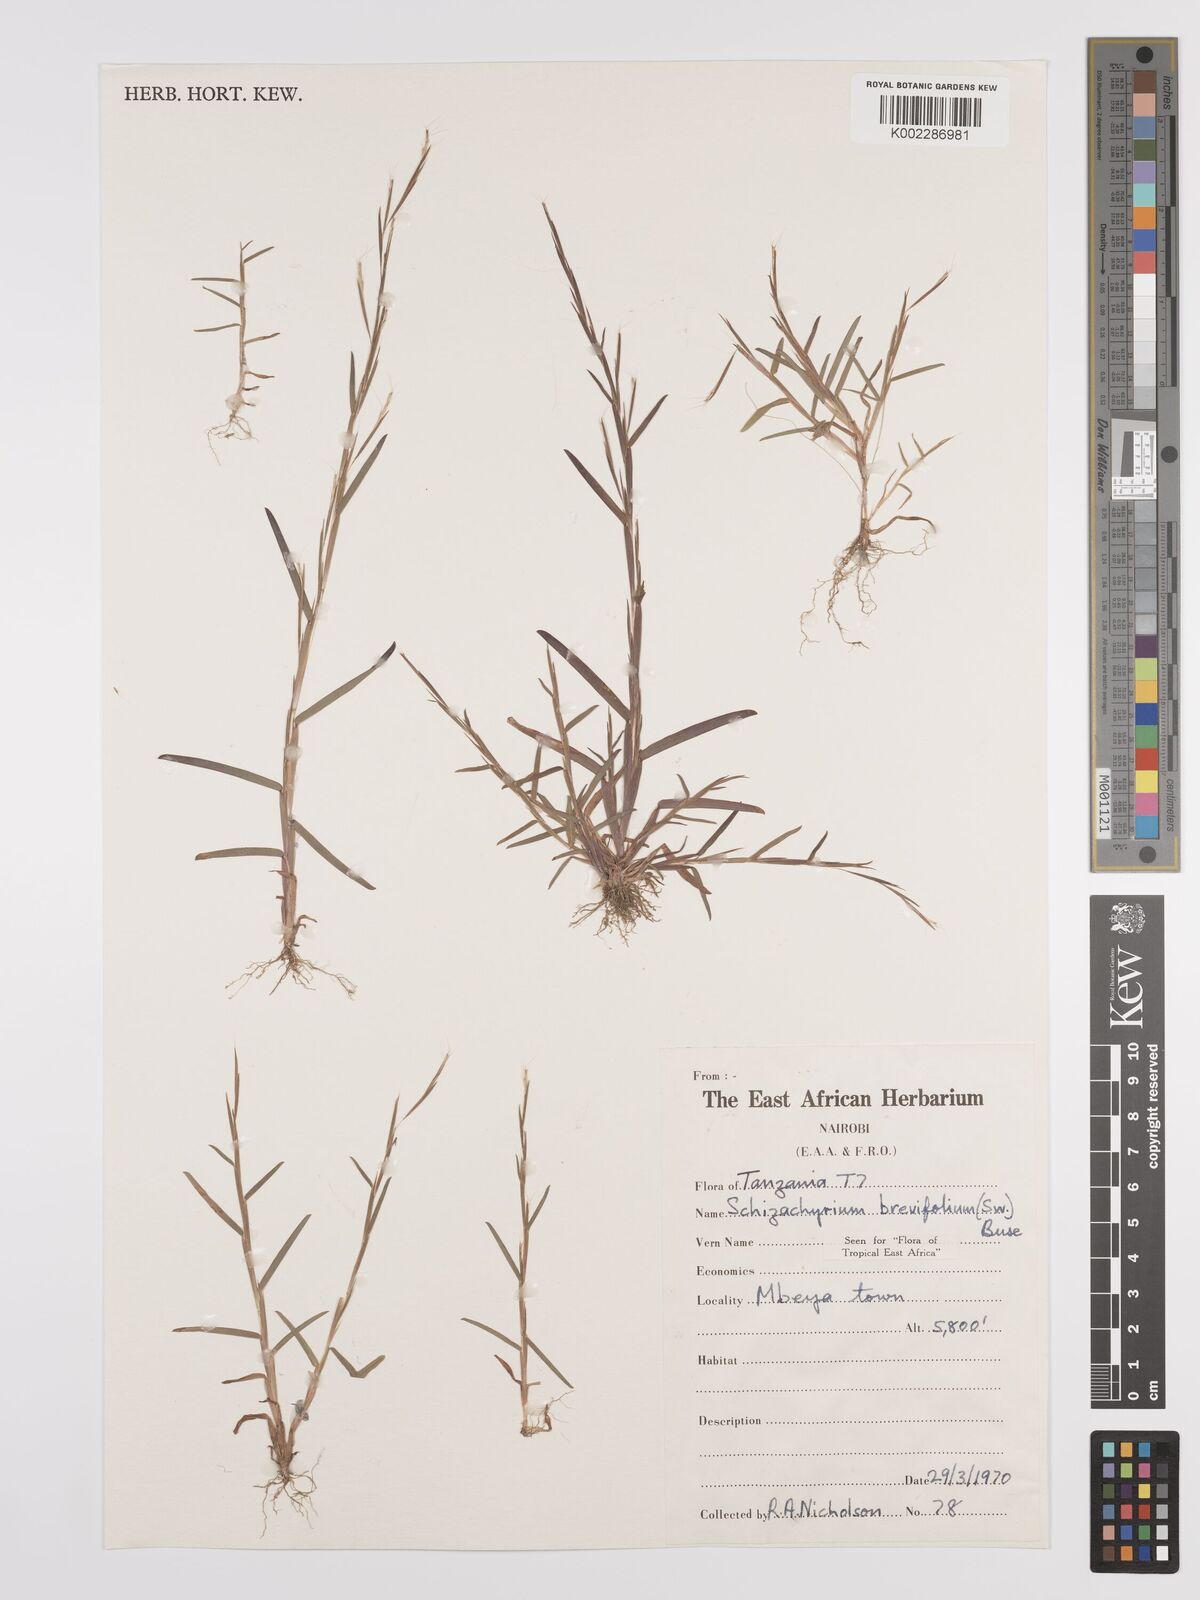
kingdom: Plantae
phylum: Tracheophyta
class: Liliopsida
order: Poales
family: Poaceae
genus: Schizachyrium
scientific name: Schizachyrium brevifolium
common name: Serillo dulce
